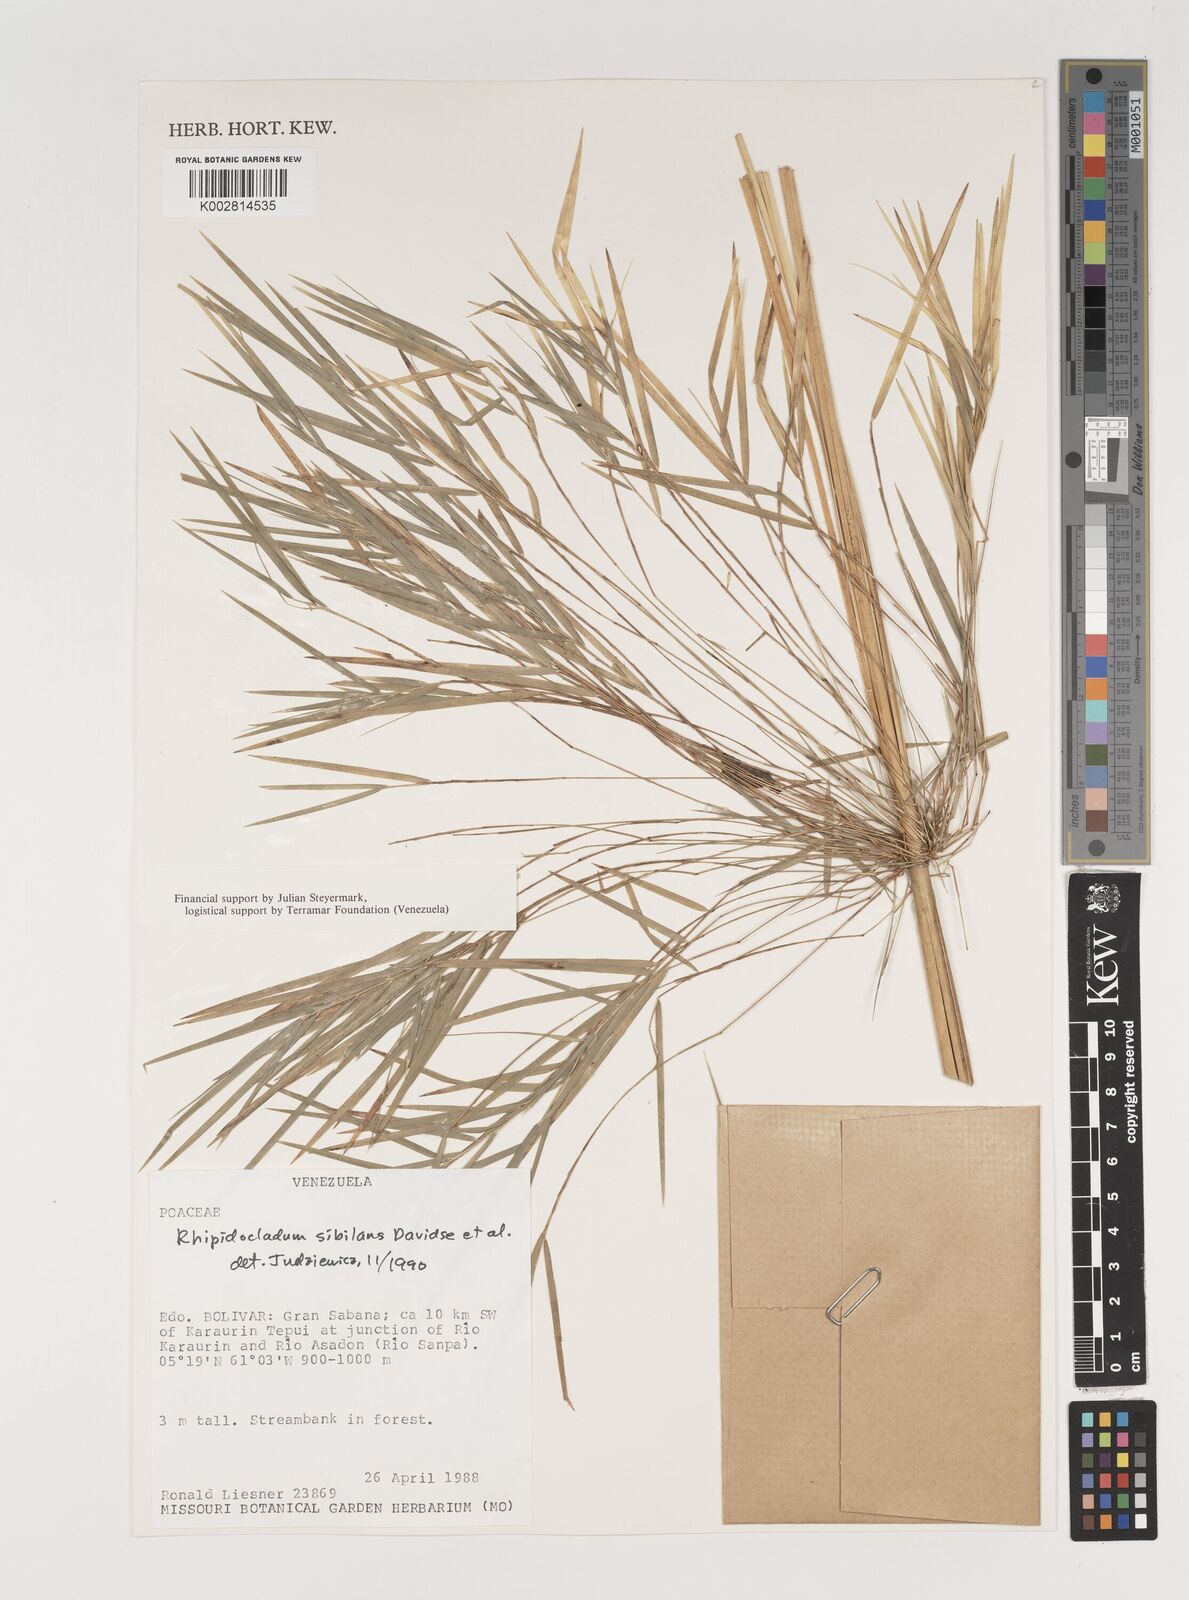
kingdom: Plantae
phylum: Tracheophyta
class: Liliopsida
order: Poales
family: Poaceae
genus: Rhipidocladum
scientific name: Rhipidocladum sibilans
